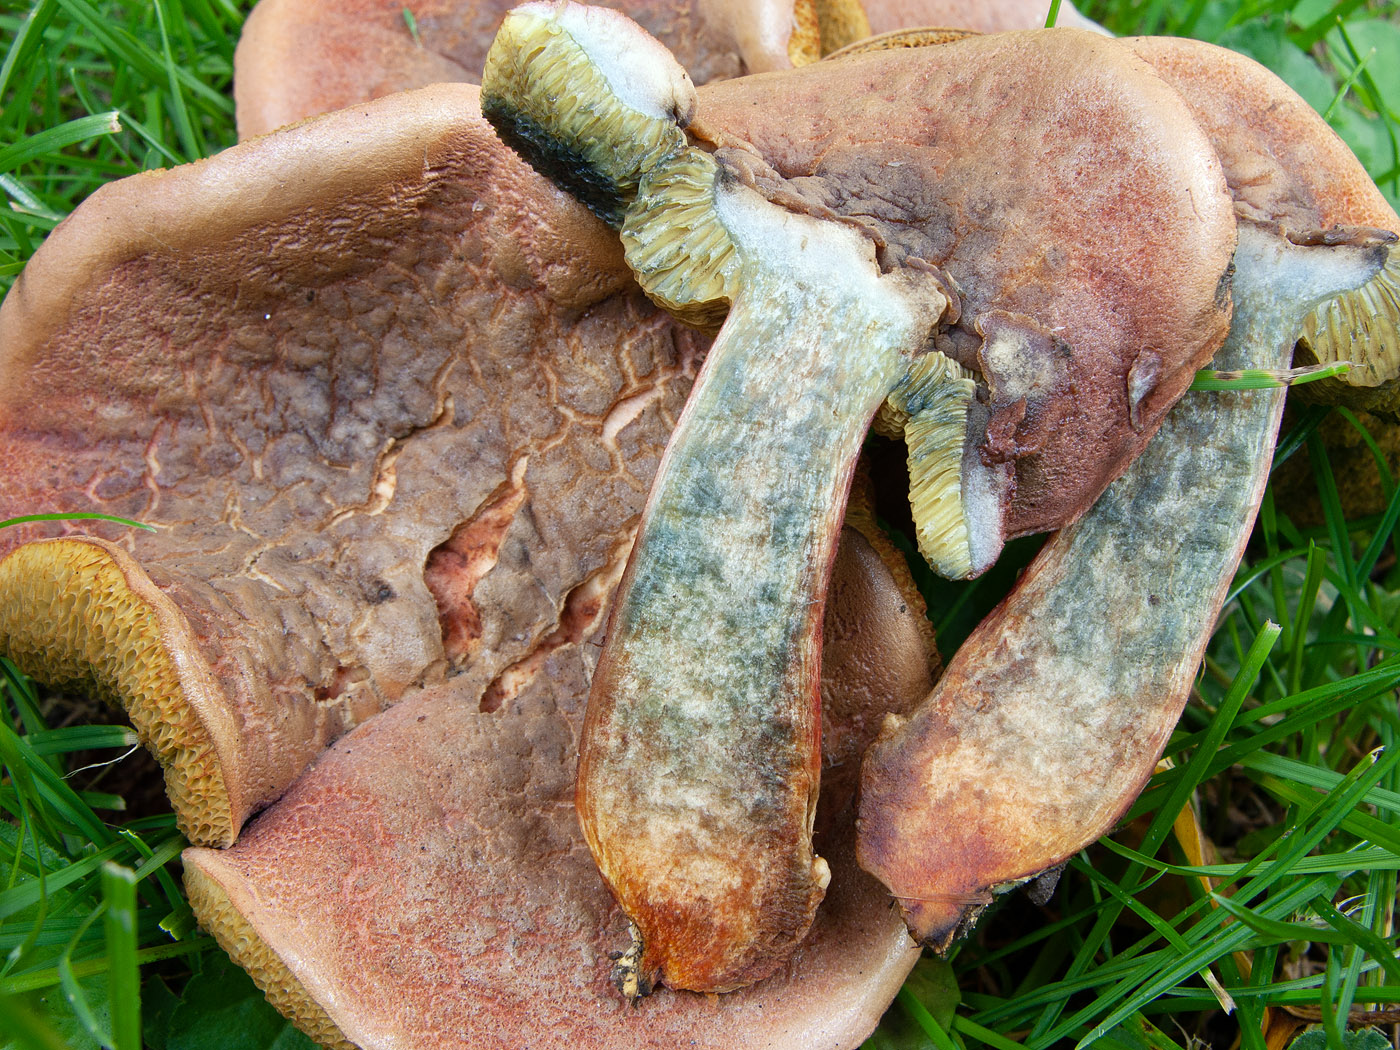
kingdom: Fungi
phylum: Basidiomycota
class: Agaricomycetes
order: Boletales
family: Boletaceae
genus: Hortiboletus
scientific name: Hortiboletus bubalinus
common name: aurora-rørhat
